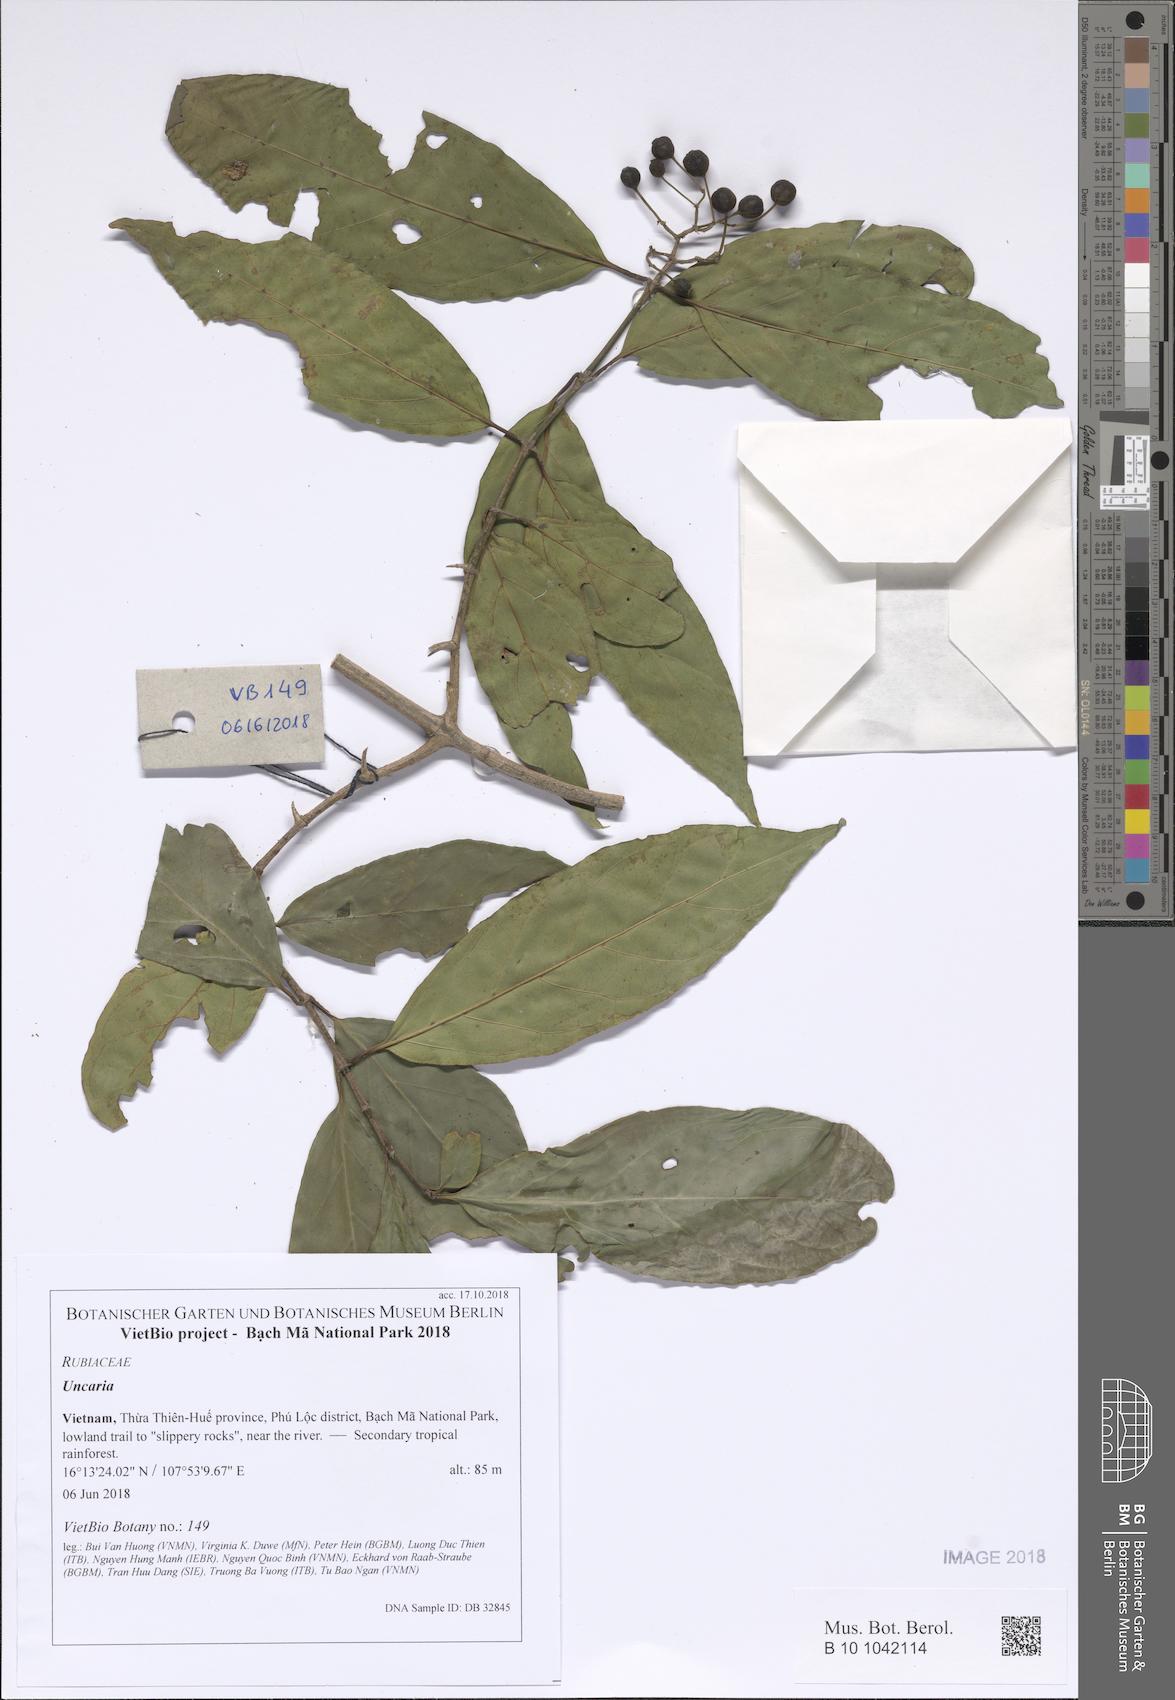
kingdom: Plantae
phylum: Tracheophyta
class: Magnoliopsida
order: Gentianales
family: Rubiaceae
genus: Uncaria
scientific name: Uncaria
